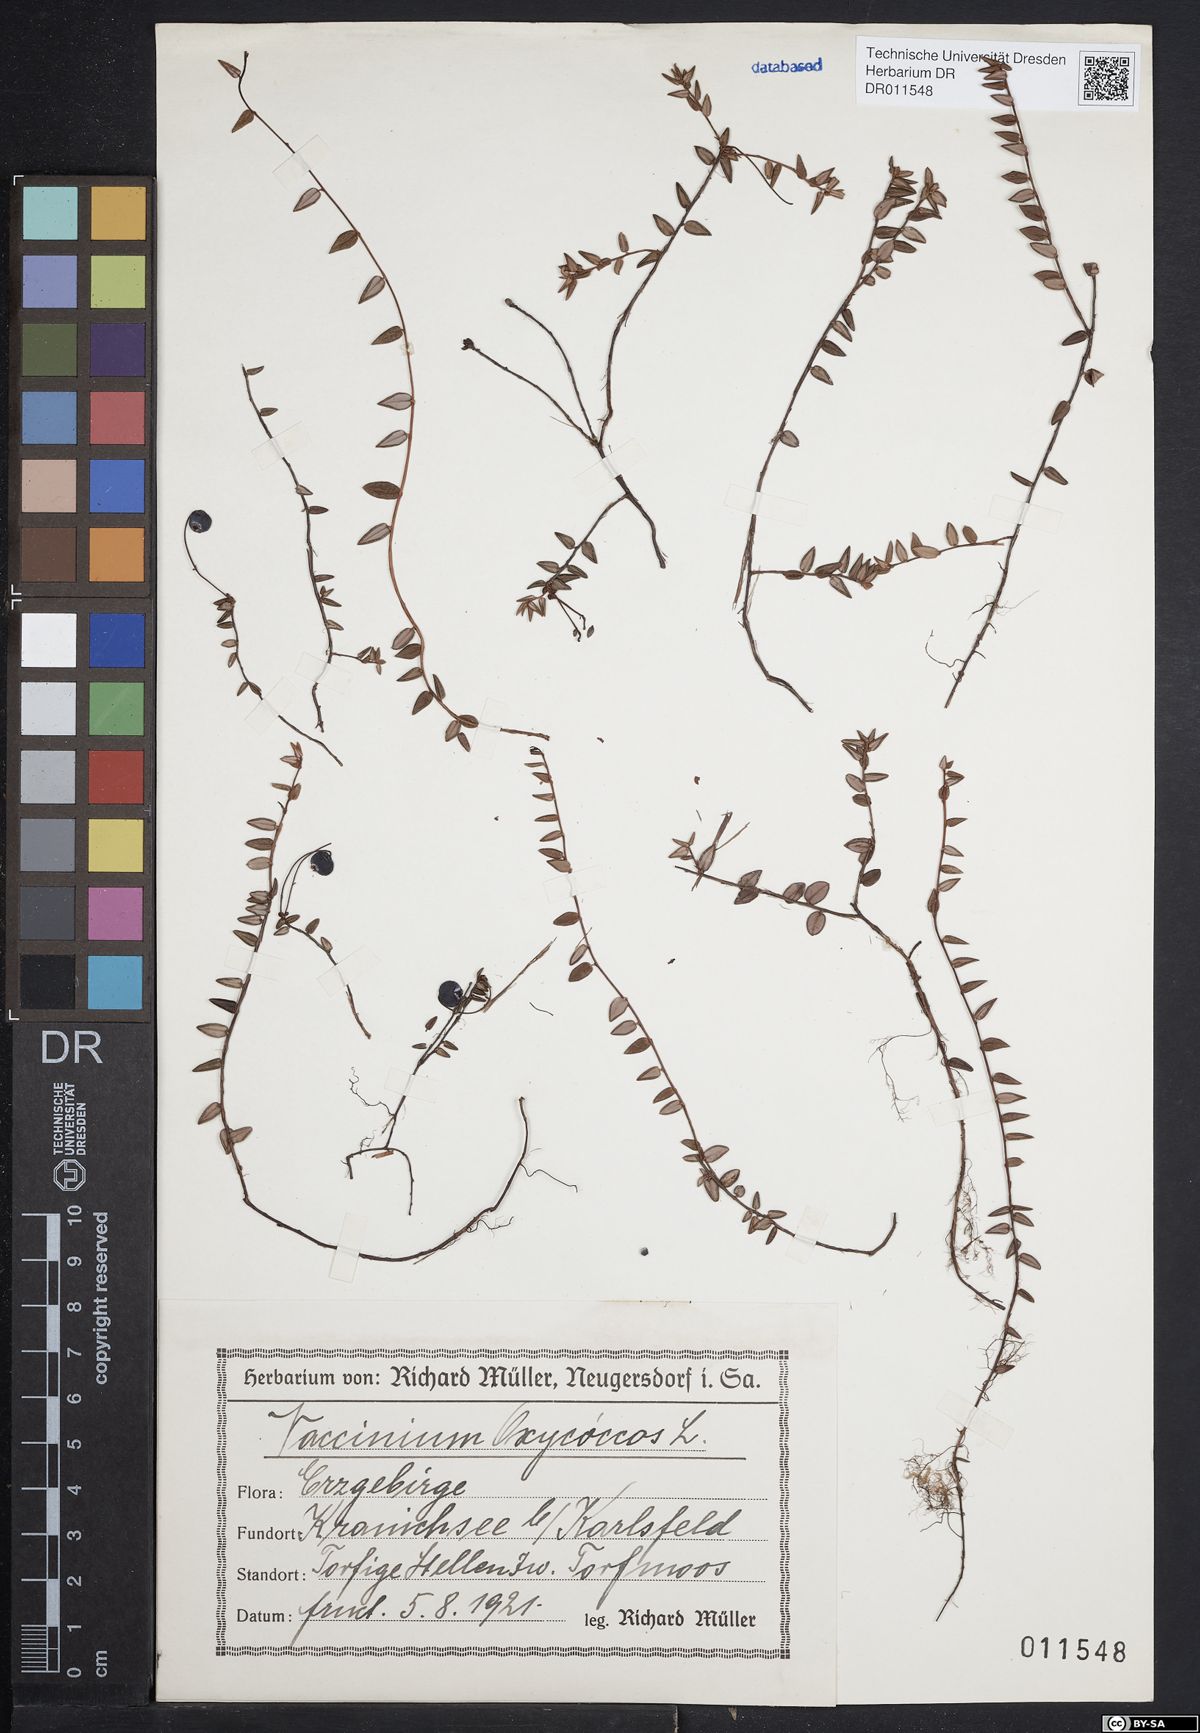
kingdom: Plantae
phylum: Tracheophyta
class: Magnoliopsida
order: Ericales
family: Ericaceae
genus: Vaccinium
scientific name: Vaccinium oxycoccos
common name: Cranberry
